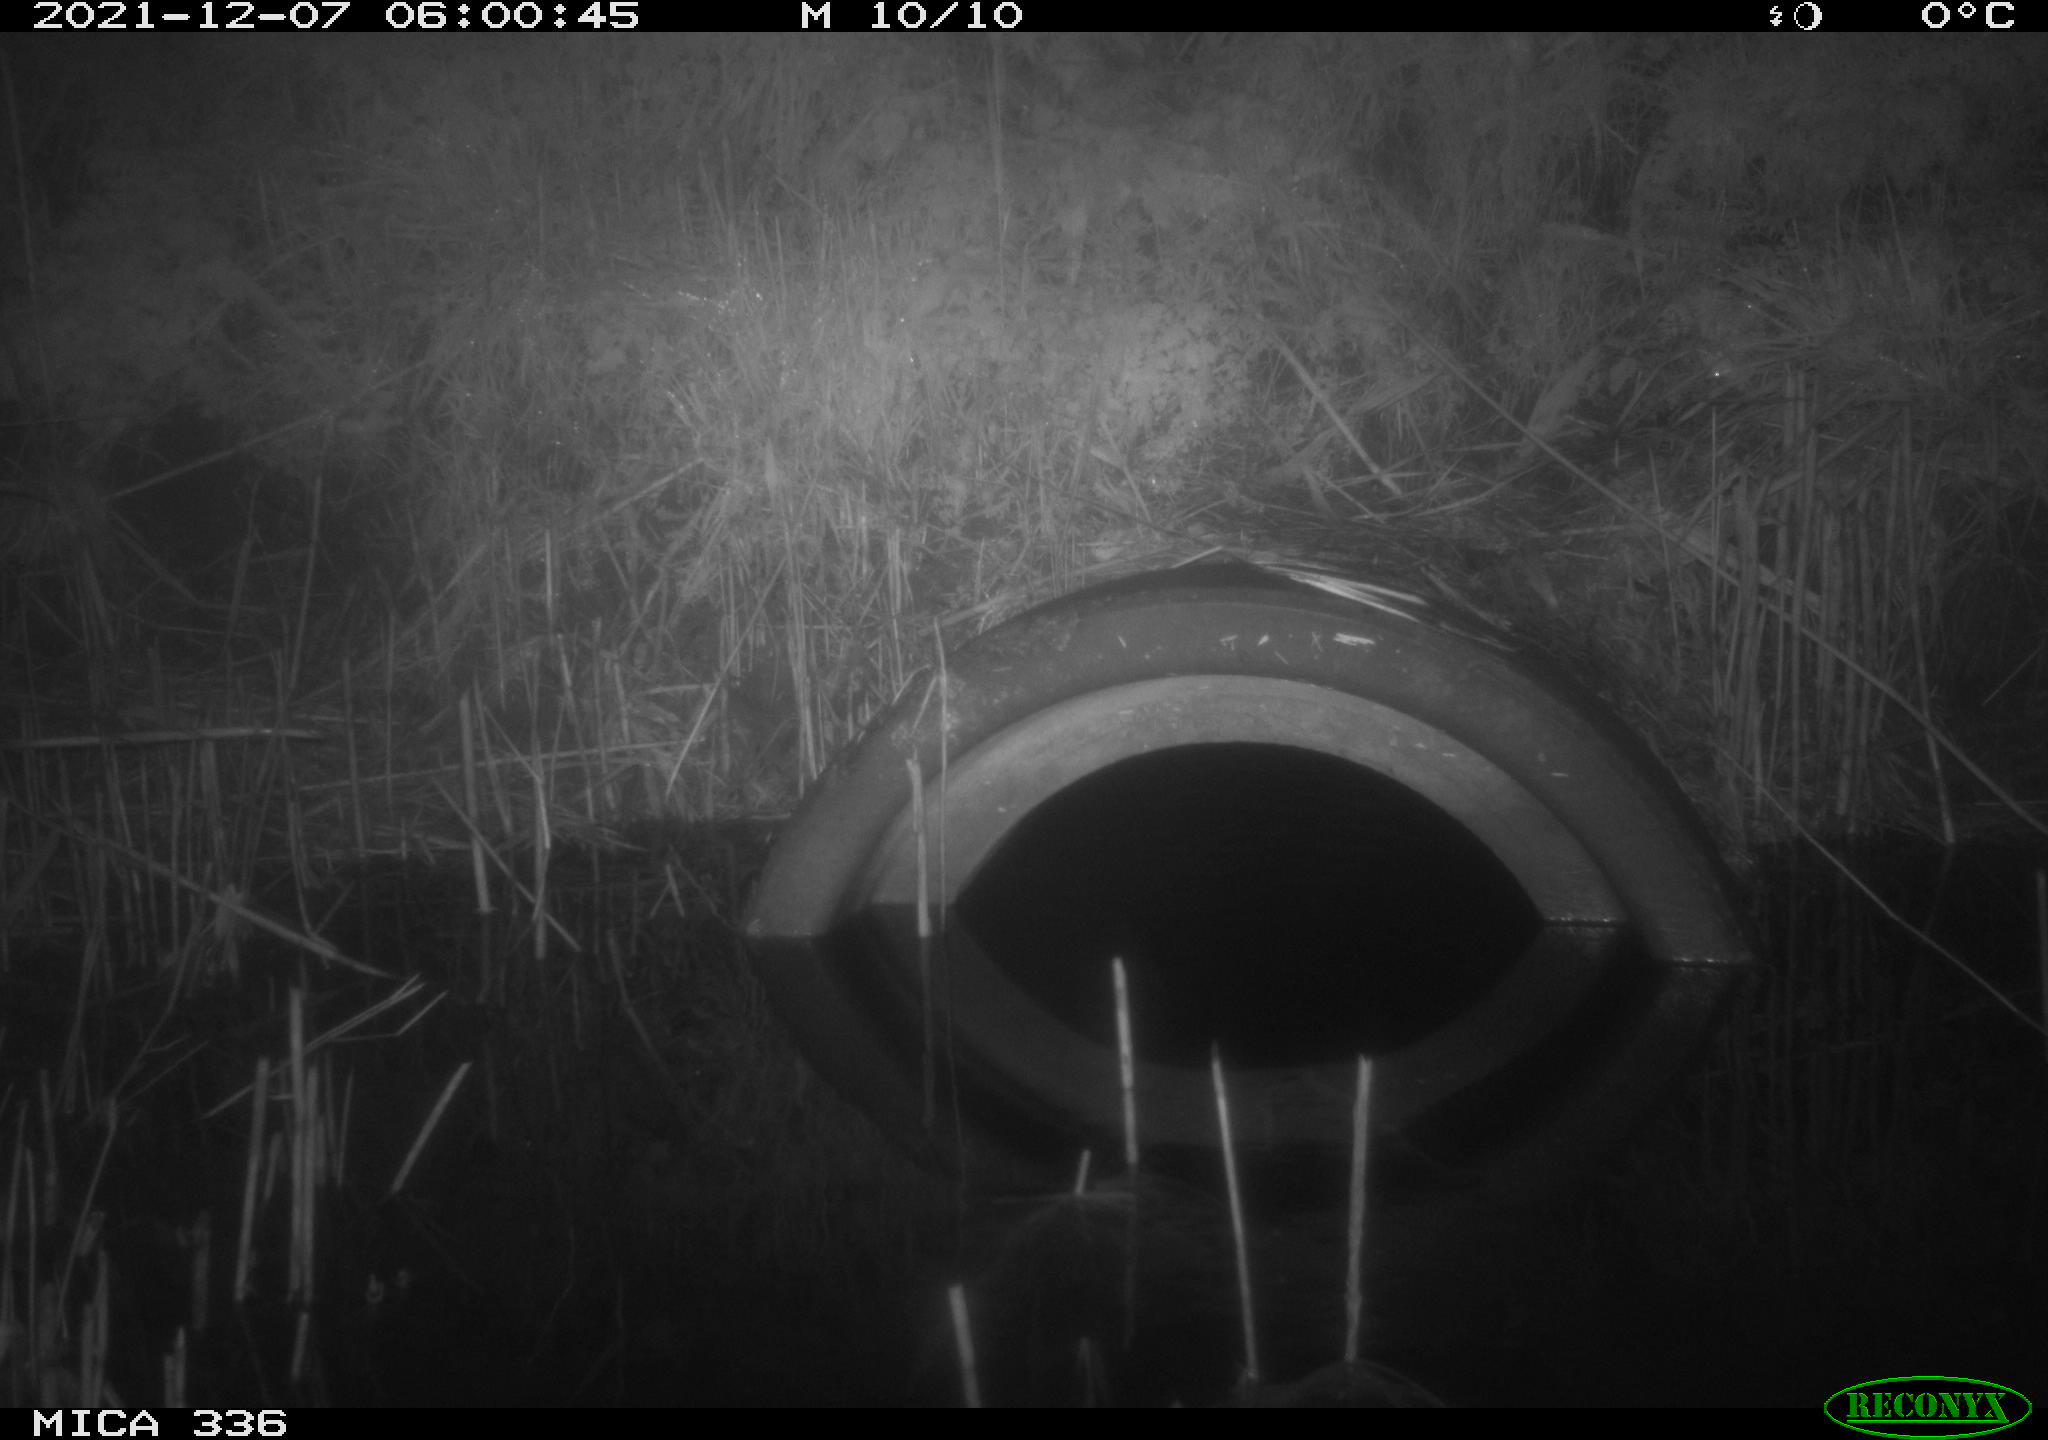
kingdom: Animalia
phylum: Chordata
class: Mammalia
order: Rodentia
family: Muridae
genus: Rattus
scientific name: Rattus norvegicus
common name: Brown rat
